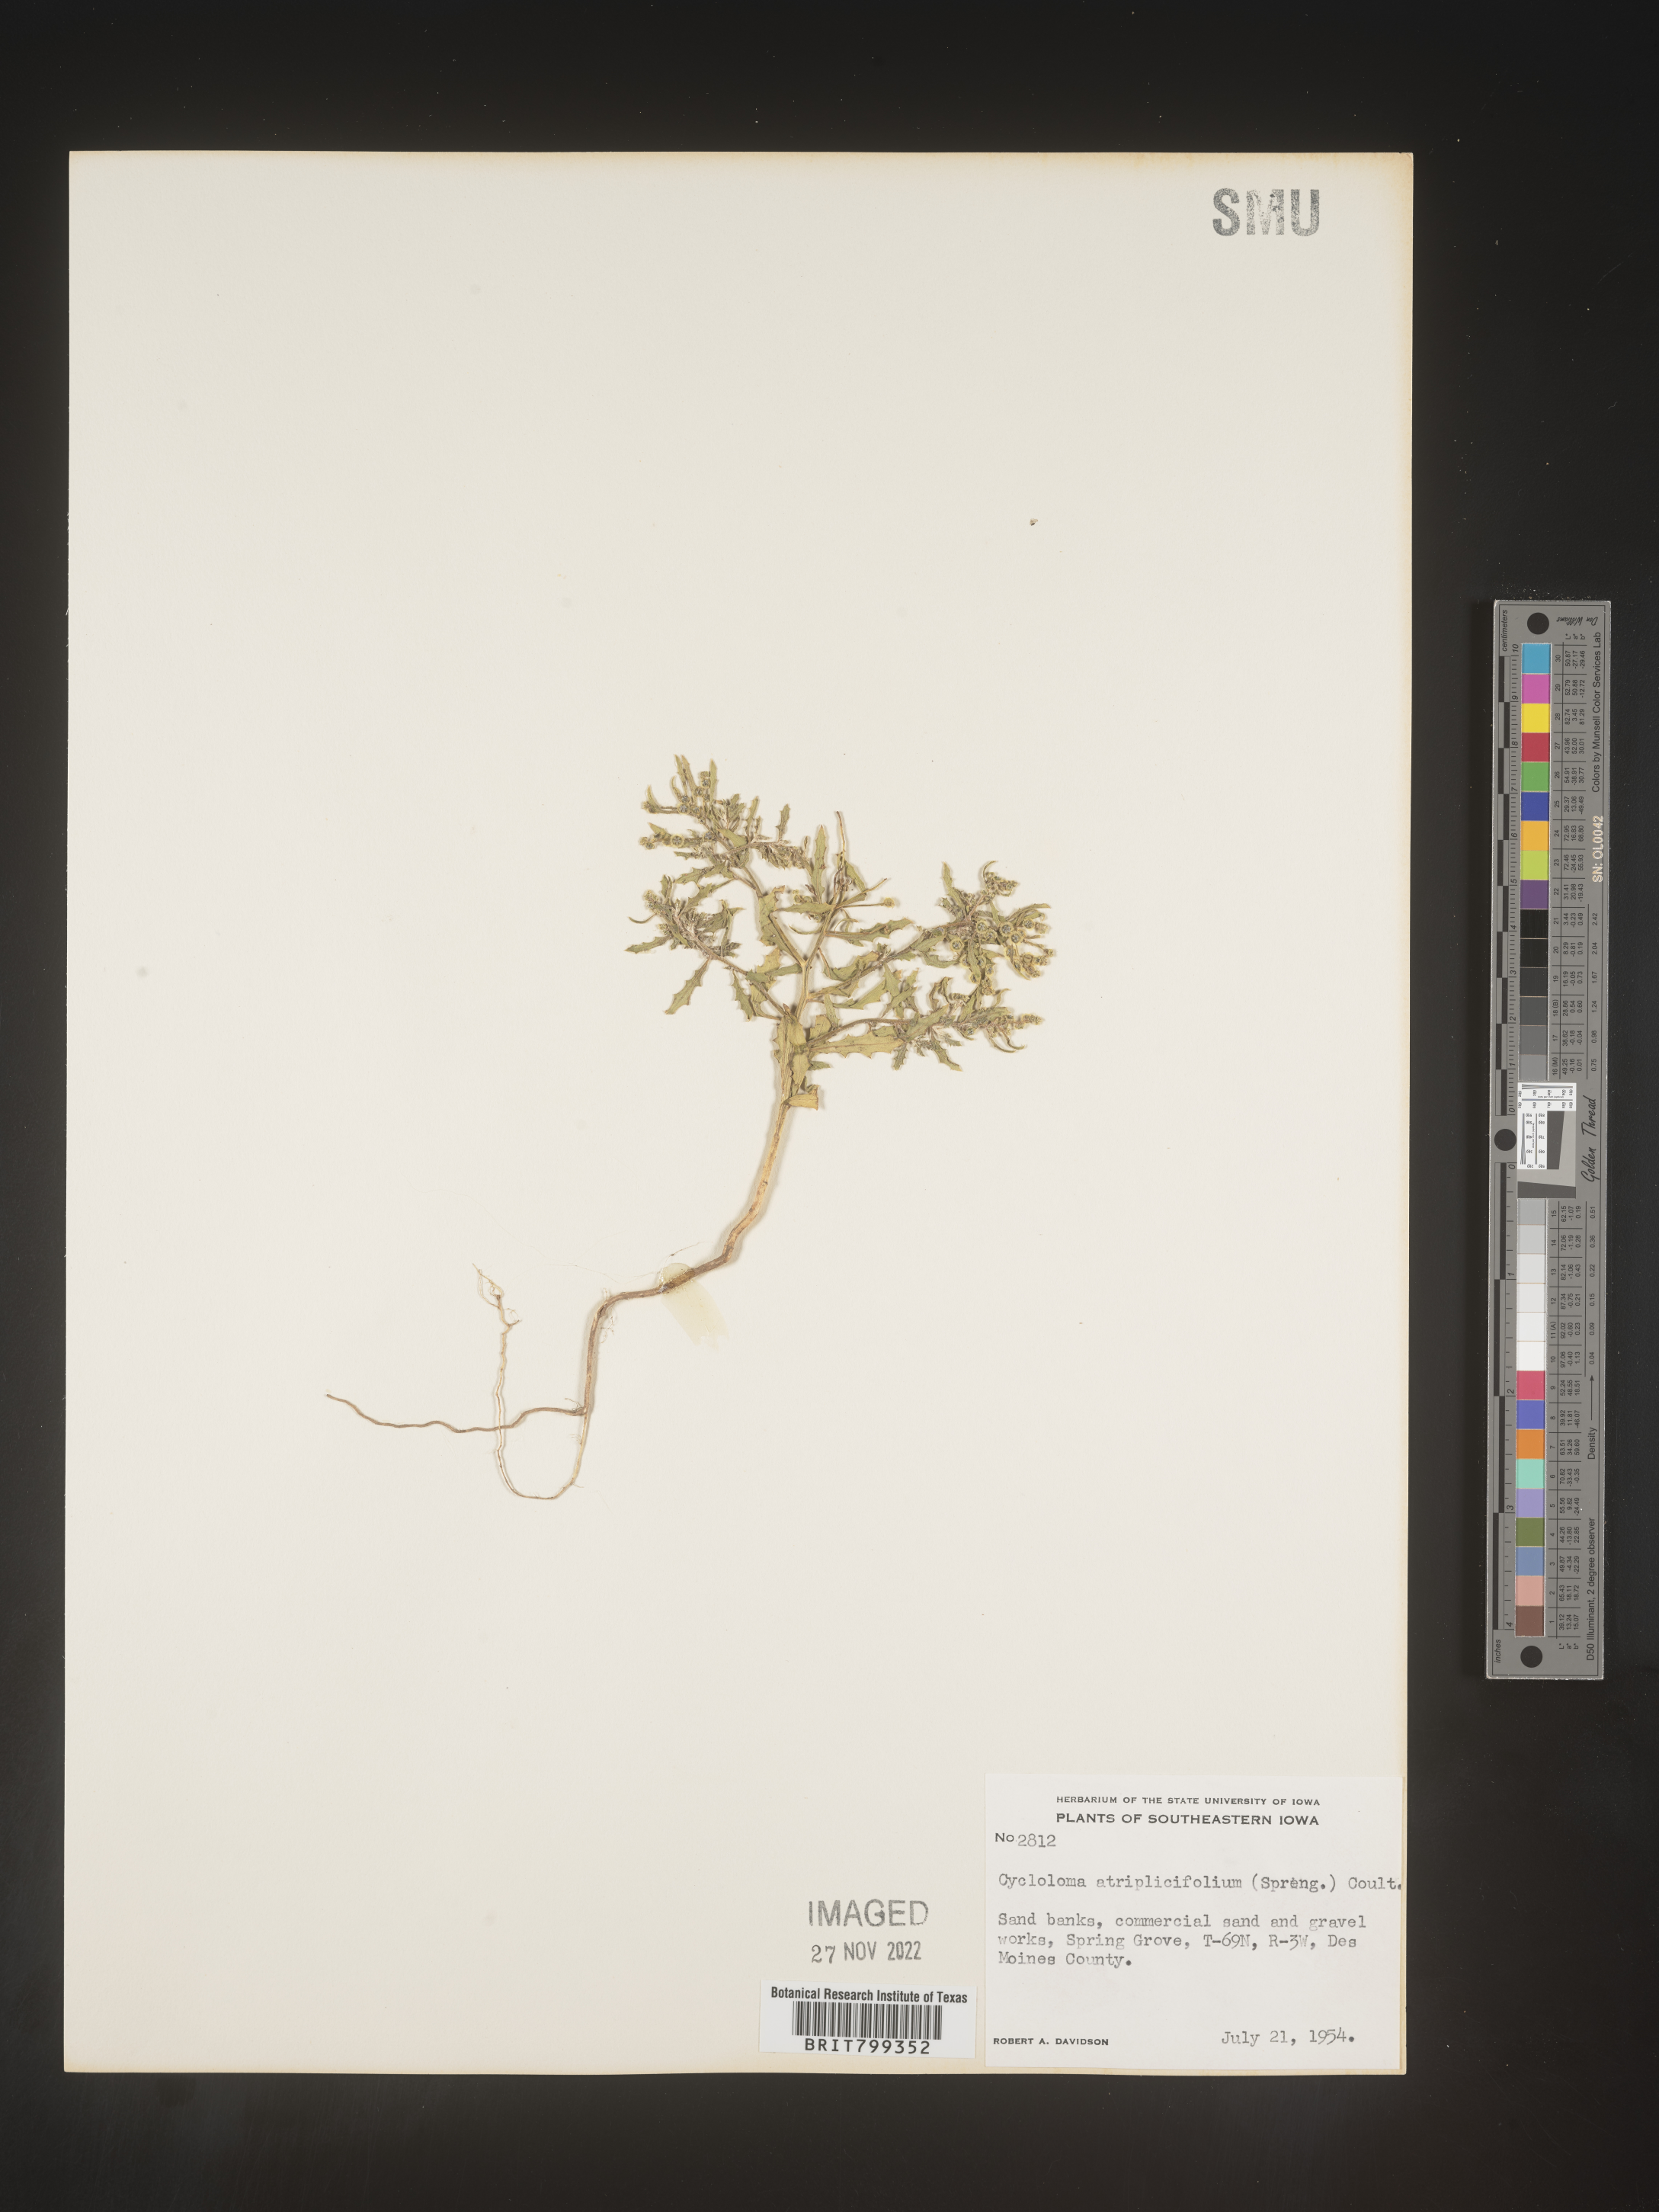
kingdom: Plantae
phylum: Tracheophyta
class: Magnoliopsida
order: Caryophyllales
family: Amaranthaceae
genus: Dysphania
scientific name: Dysphania atriplicifolia
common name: Plains tumbleweed
